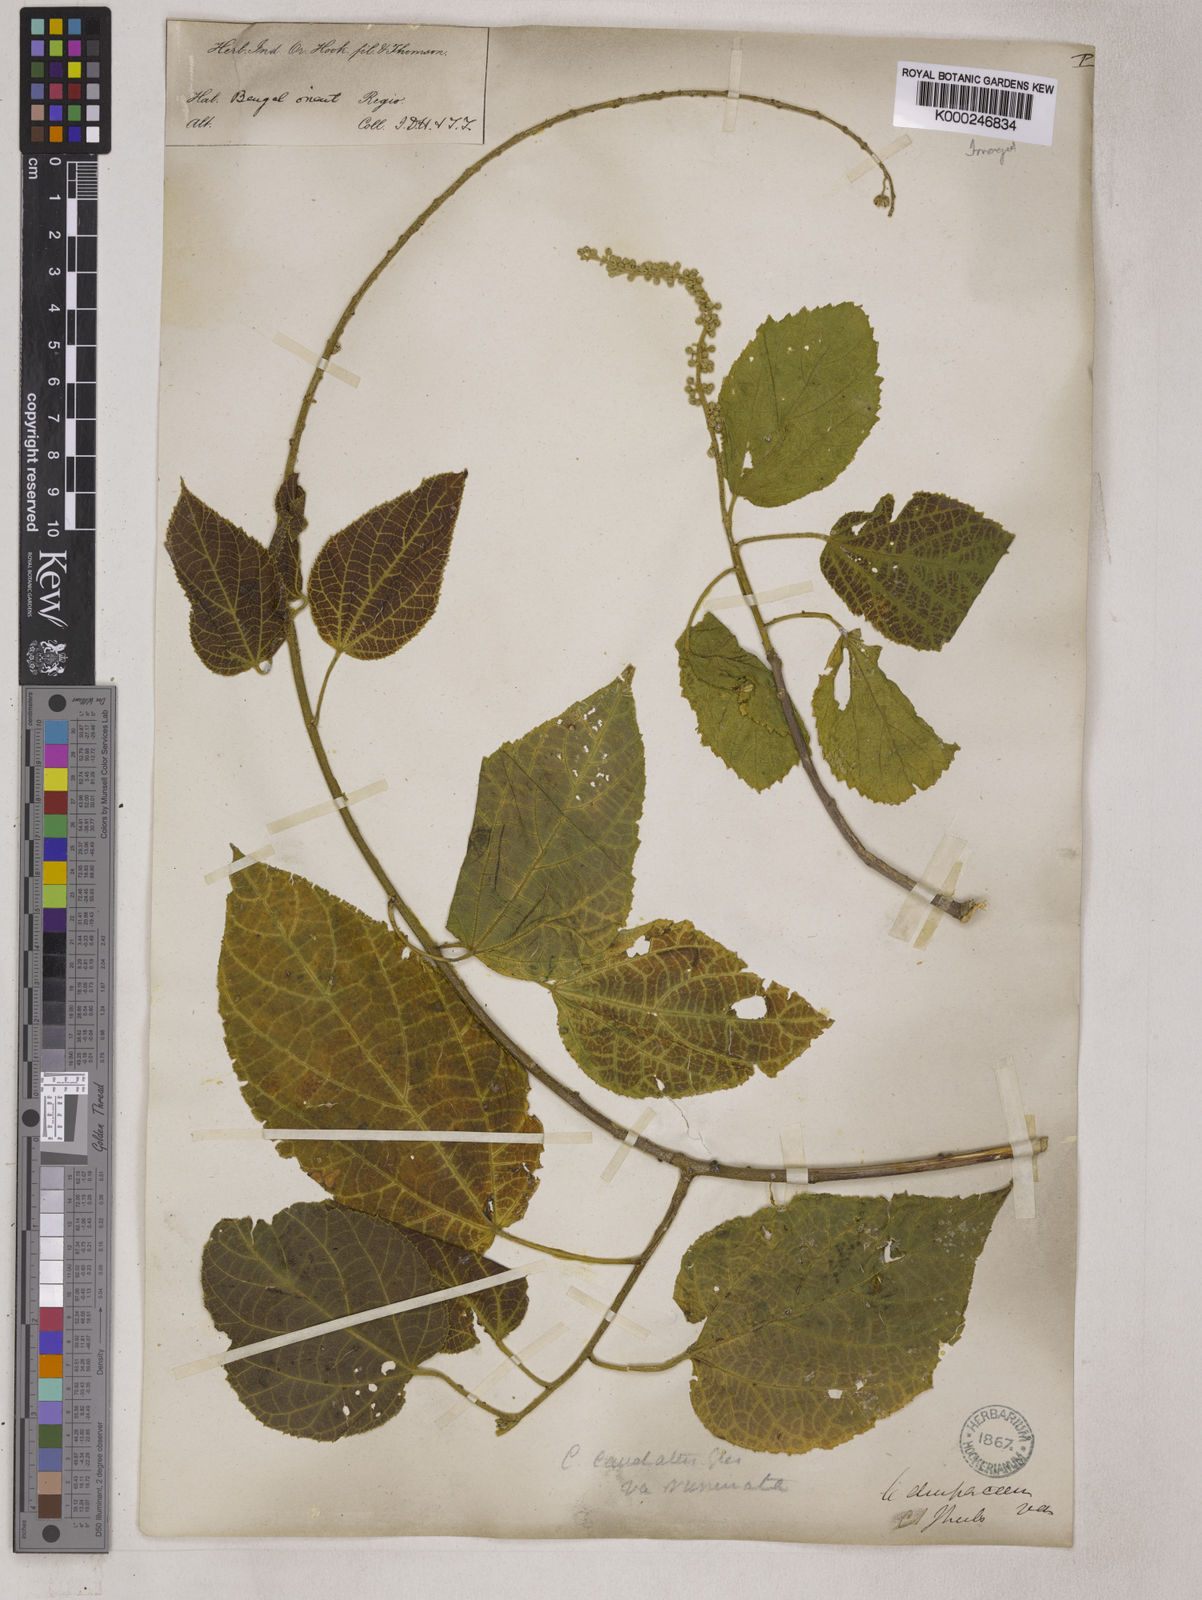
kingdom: Plantae
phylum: Tracheophyta
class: Magnoliopsida
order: Malpighiales
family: Euphorbiaceae
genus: Croton
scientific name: Croton caudatus
